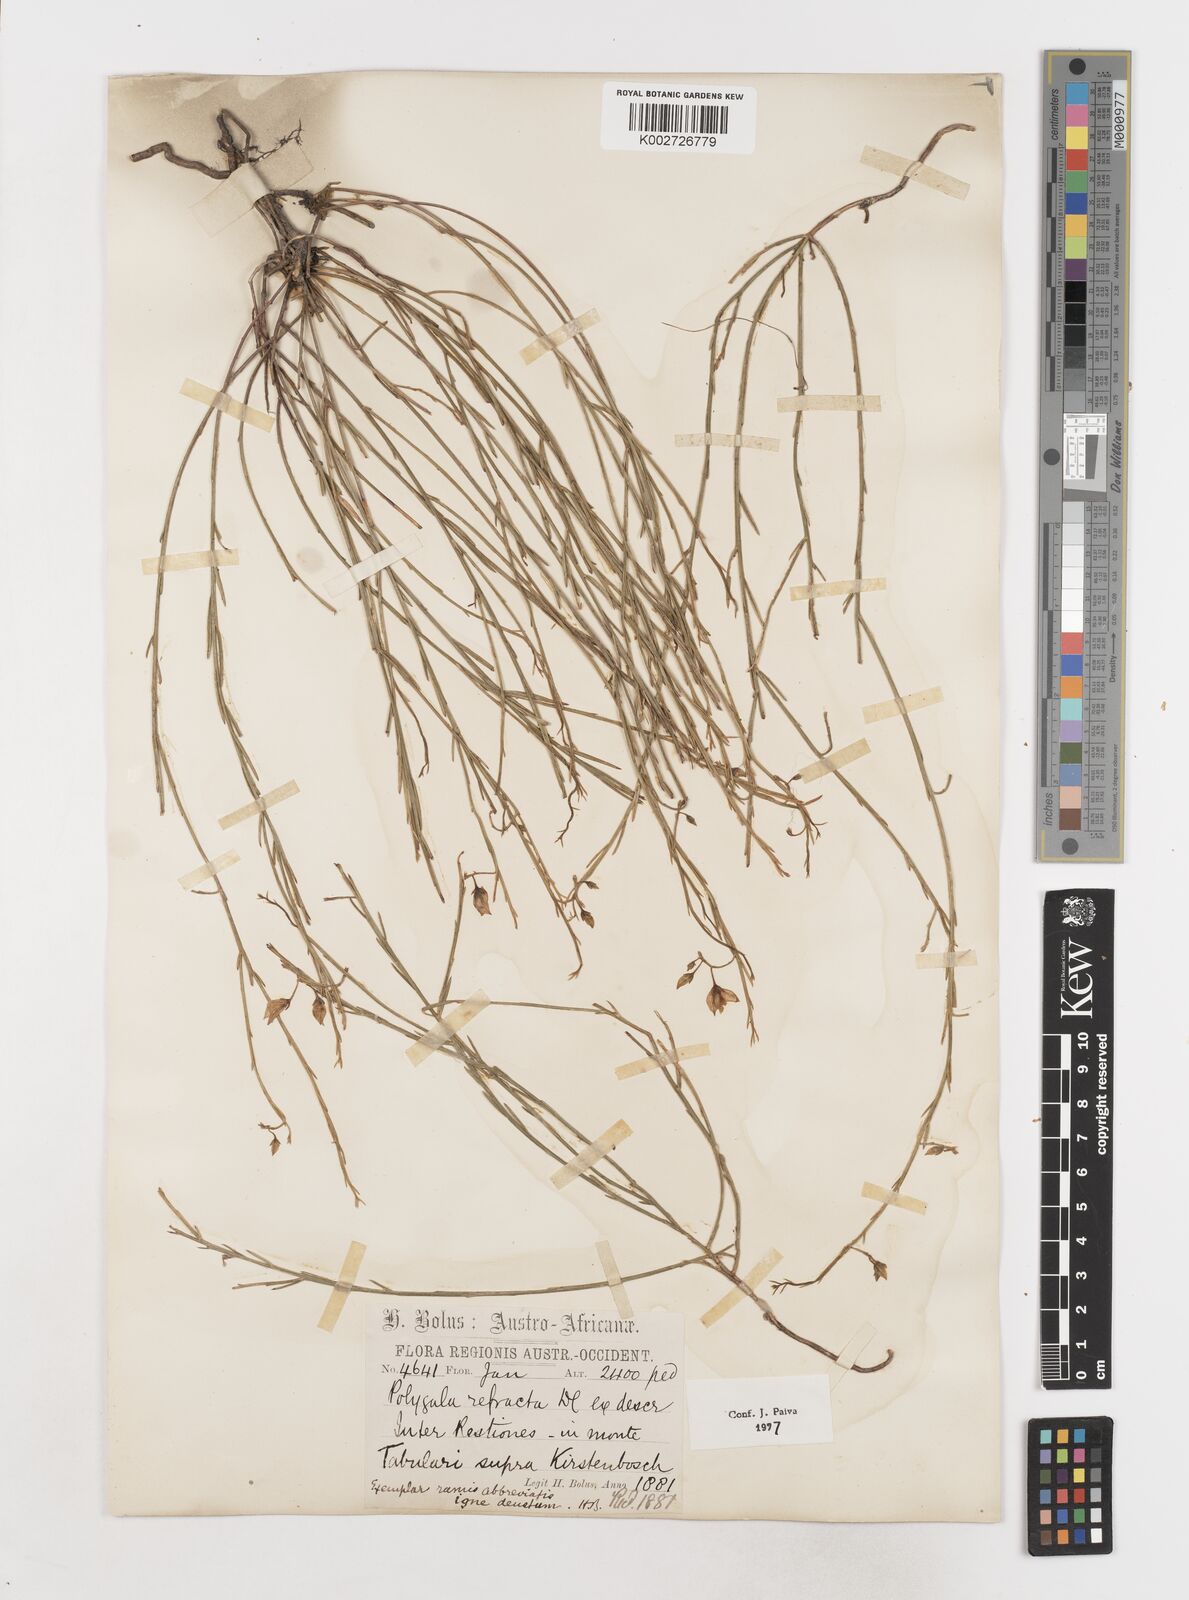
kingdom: Plantae
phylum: Tracheophyta
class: Magnoliopsida
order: Fabales
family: Polygalaceae
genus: Polygala
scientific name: Polygala refracta
